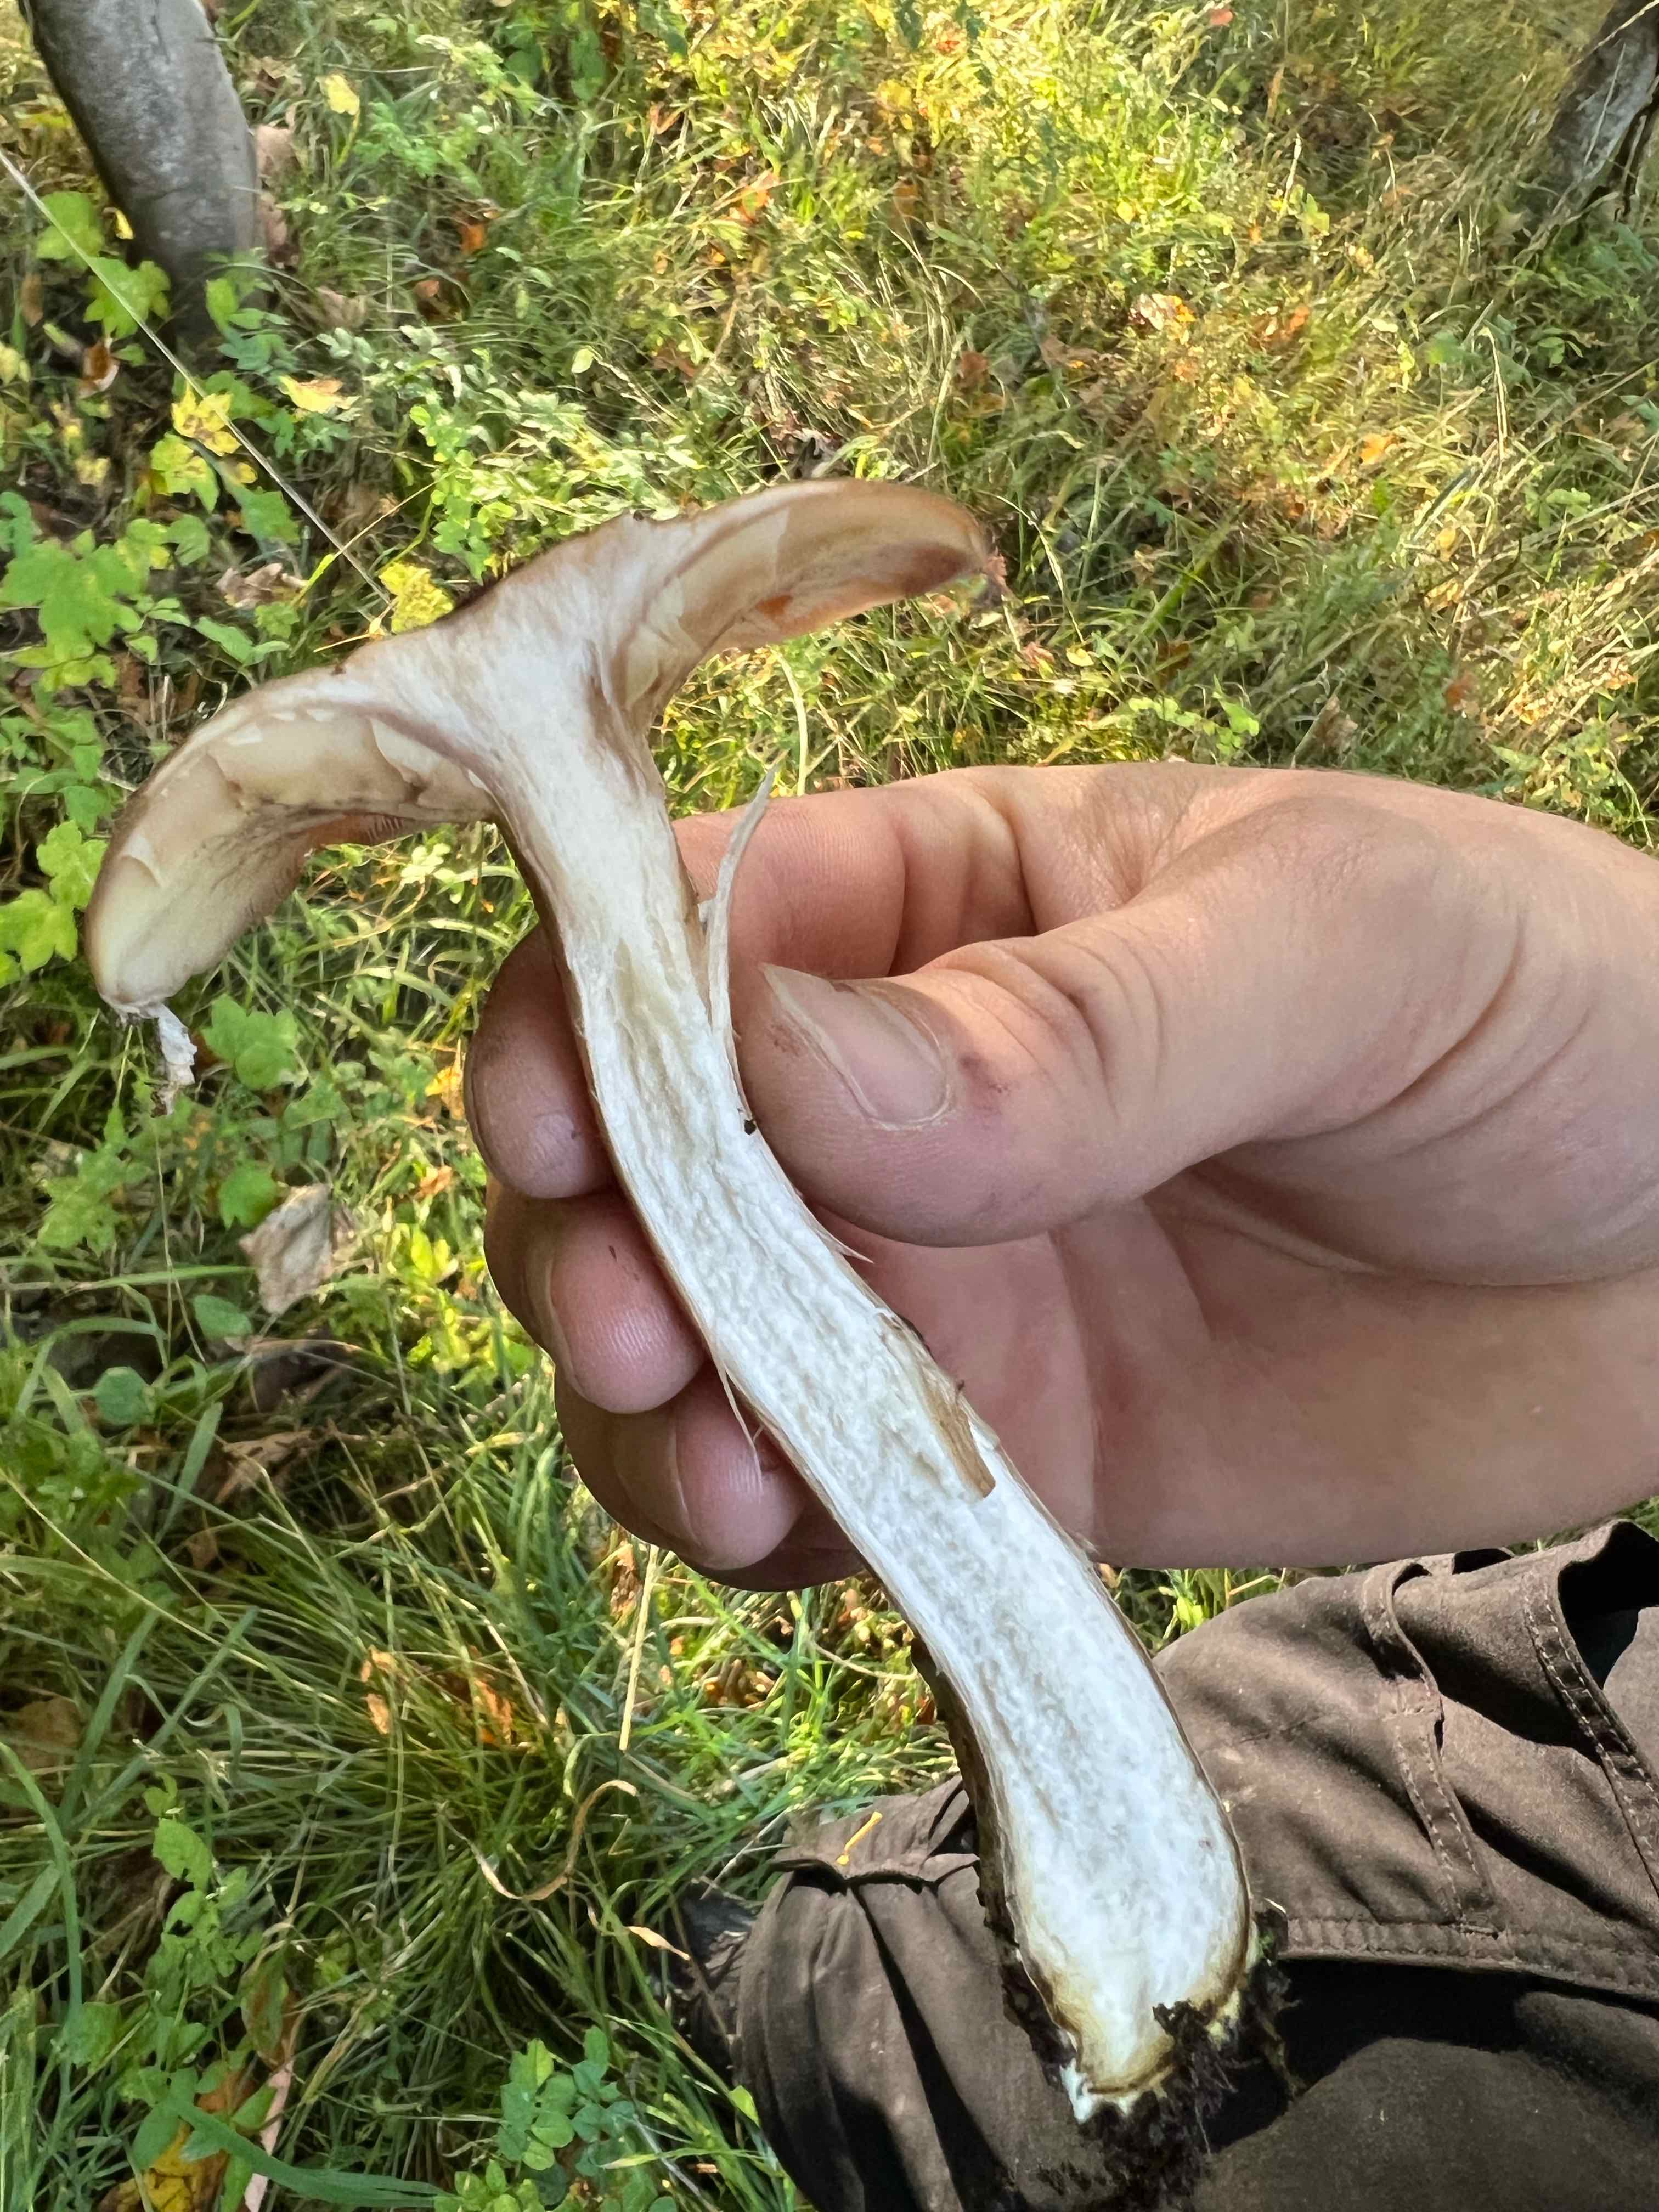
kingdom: Fungi
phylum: Basidiomycota
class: Agaricomycetes
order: Agaricales
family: Physalacriaceae
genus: Armillaria
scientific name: Armillaria
